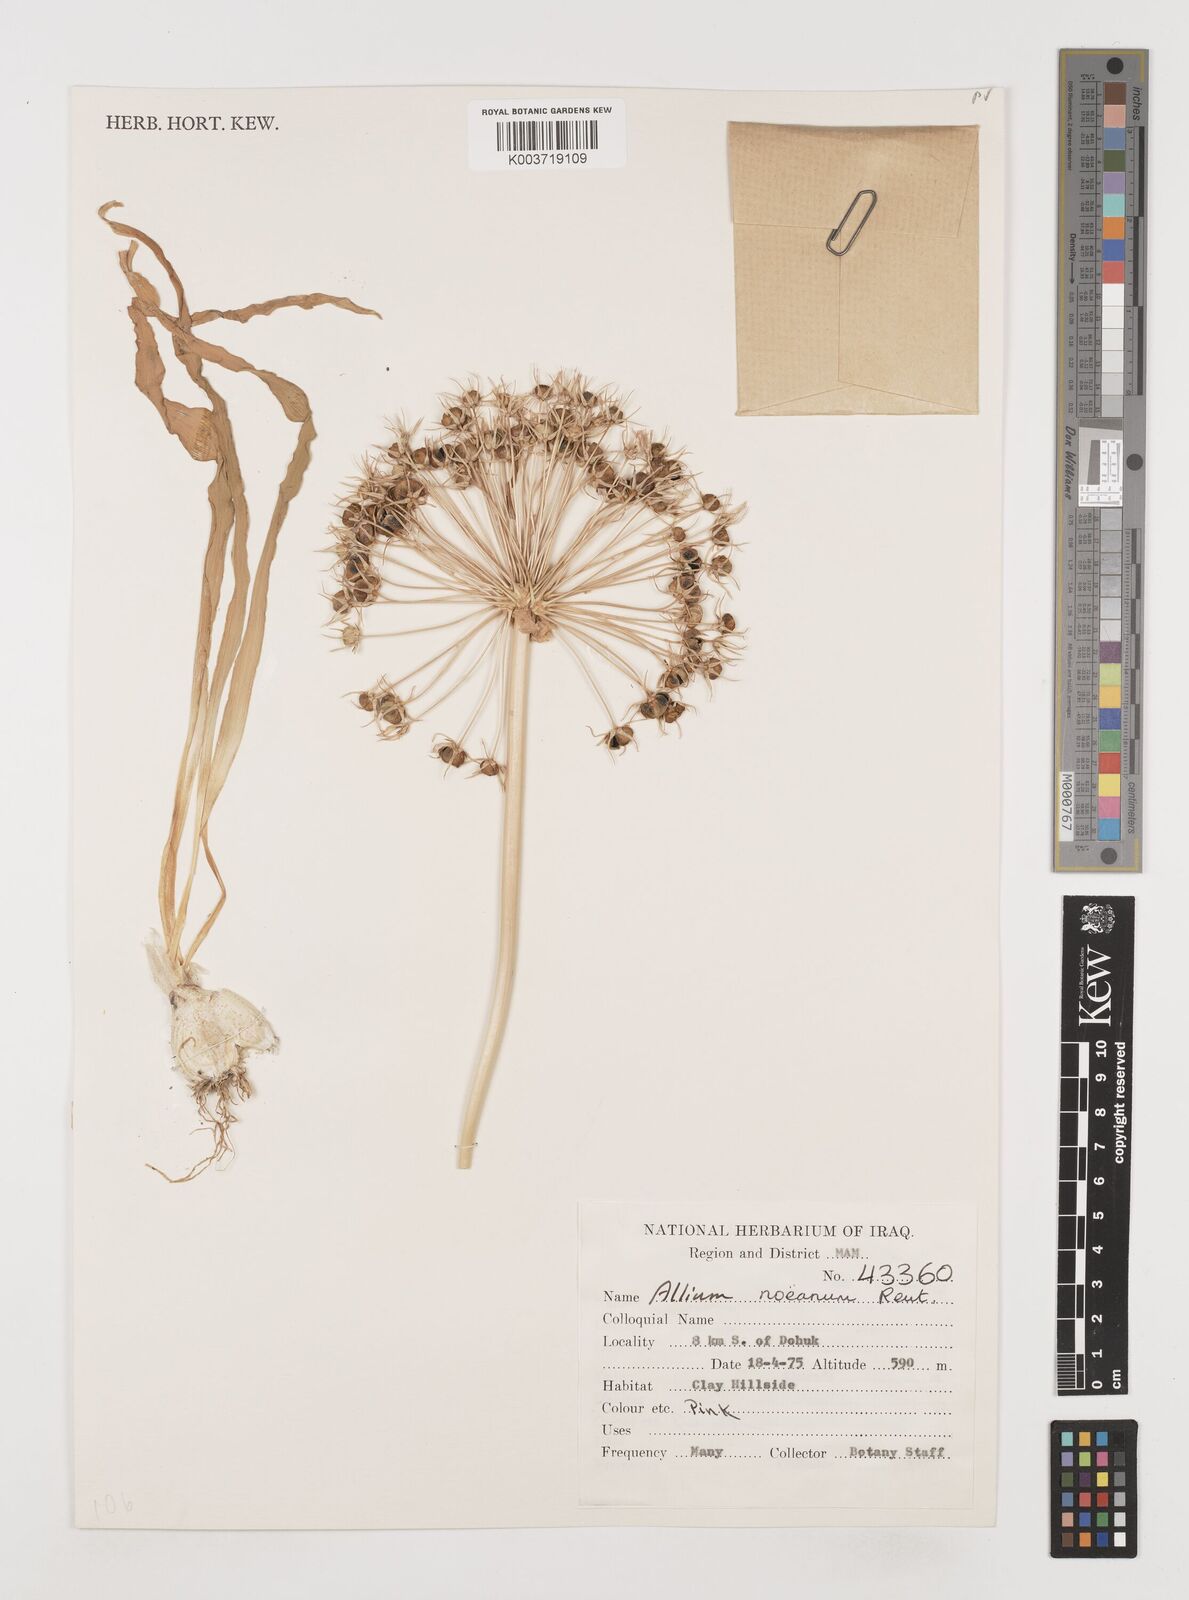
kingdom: Plantae
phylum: Tracheophyta
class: Liliopsida
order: Asparagales
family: Amaryllidaceae
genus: Allium
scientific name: Allium noeanum
